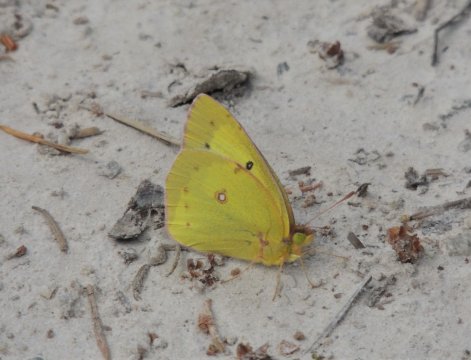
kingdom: Animalia
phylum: Arthropoda
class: Insecta
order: Lepidoptera
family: Pieridae
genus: Colias
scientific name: Colias eurytheme
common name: Orange Sulphur
